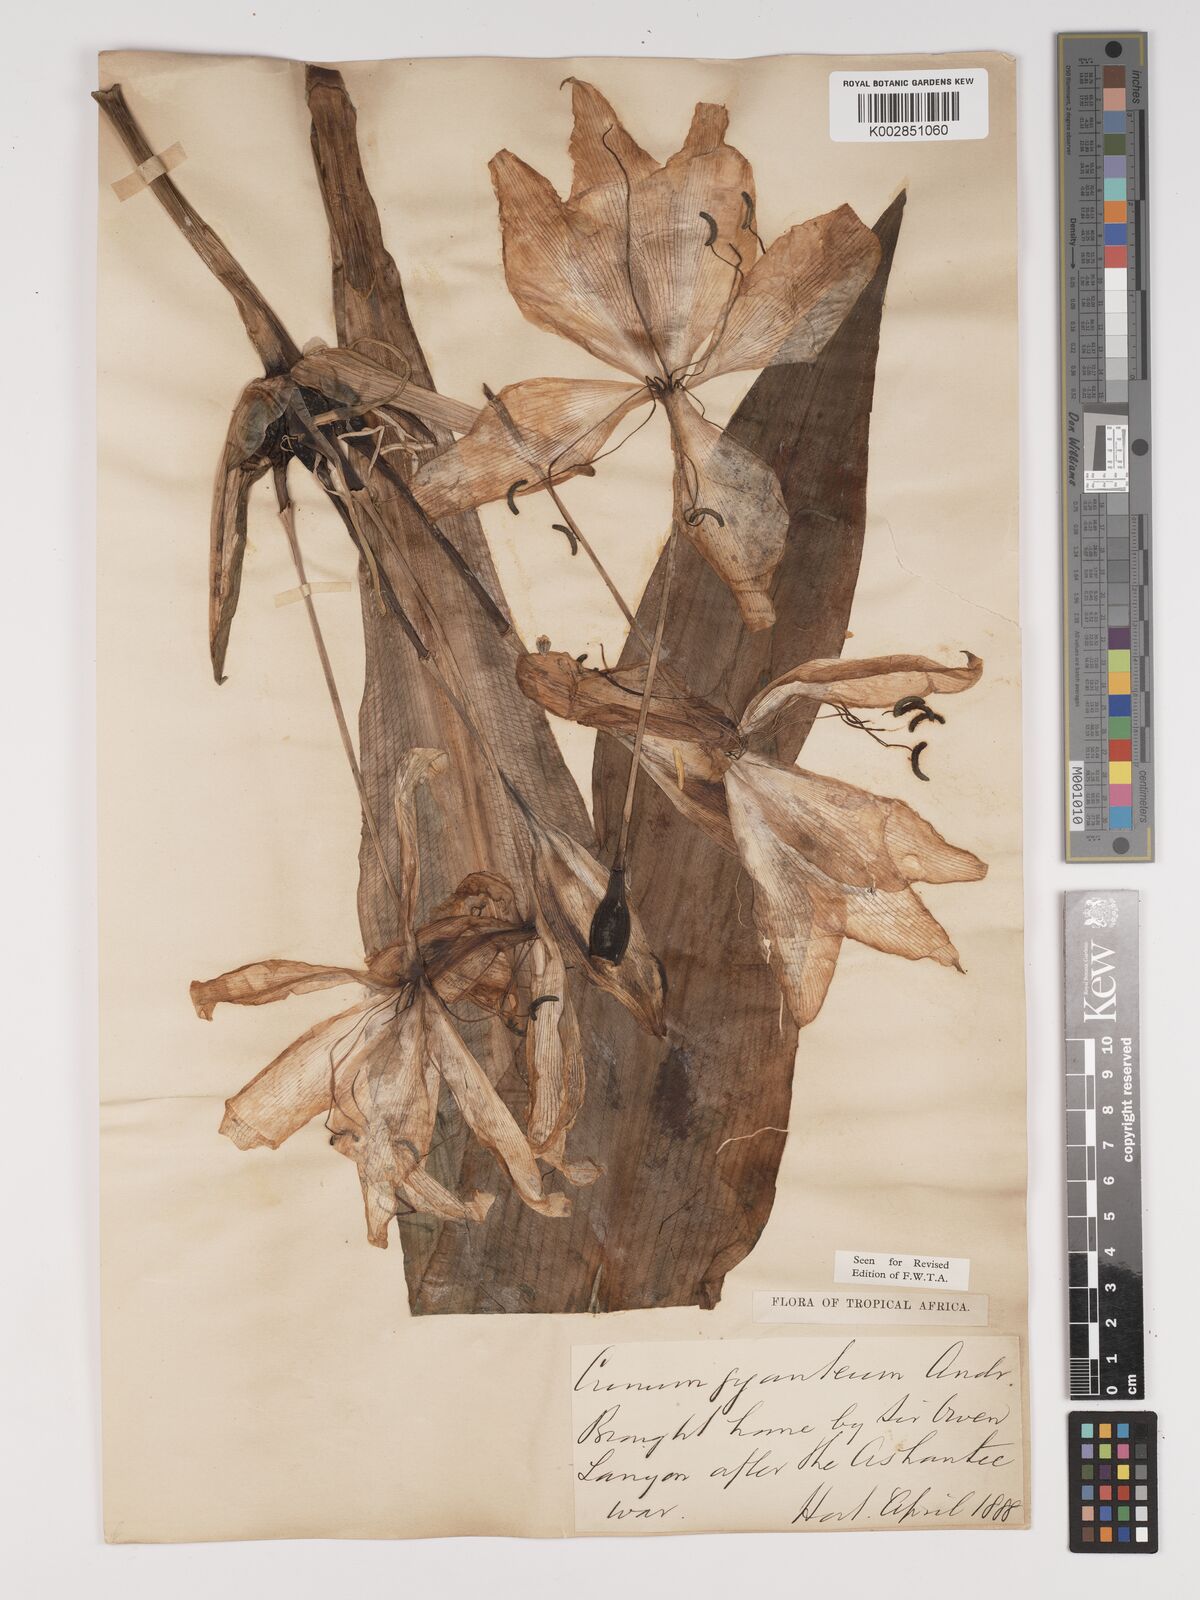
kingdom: Plantae
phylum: Tracheophyta
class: Liliopsida
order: Asparagales
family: Amaryllidaceae
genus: Crinum
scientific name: Crinum jagus
